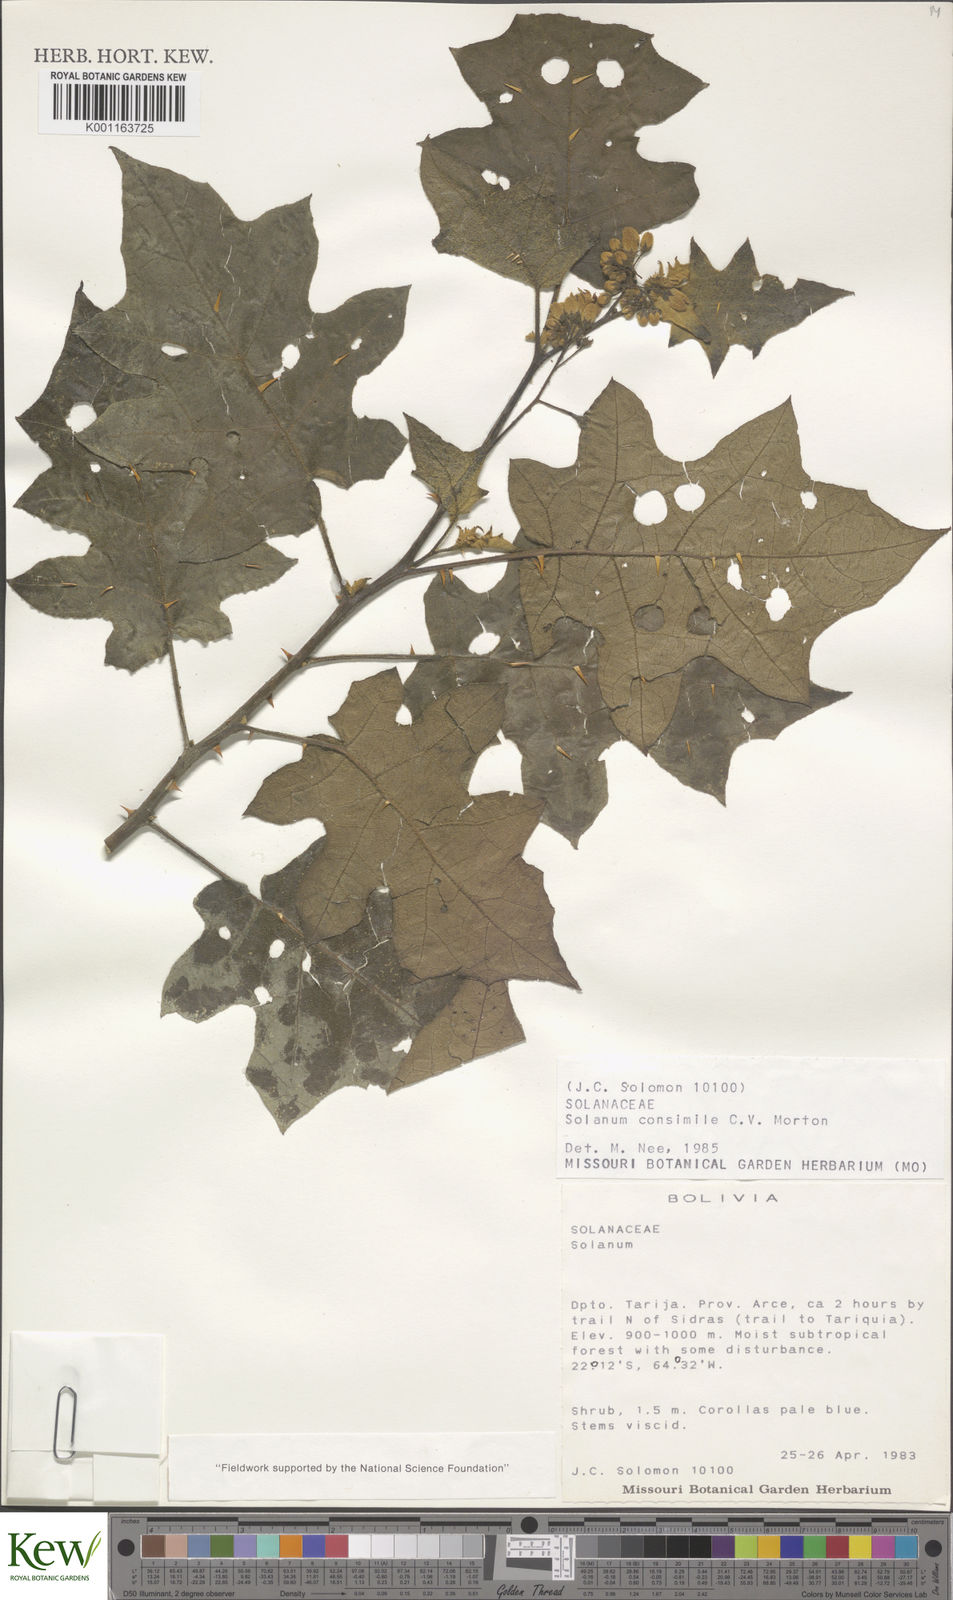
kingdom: Plantae
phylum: Tracheophyta
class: Magnoliopsida
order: Solanales
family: Solanaceae
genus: Solanum
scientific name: Solanum consimile
